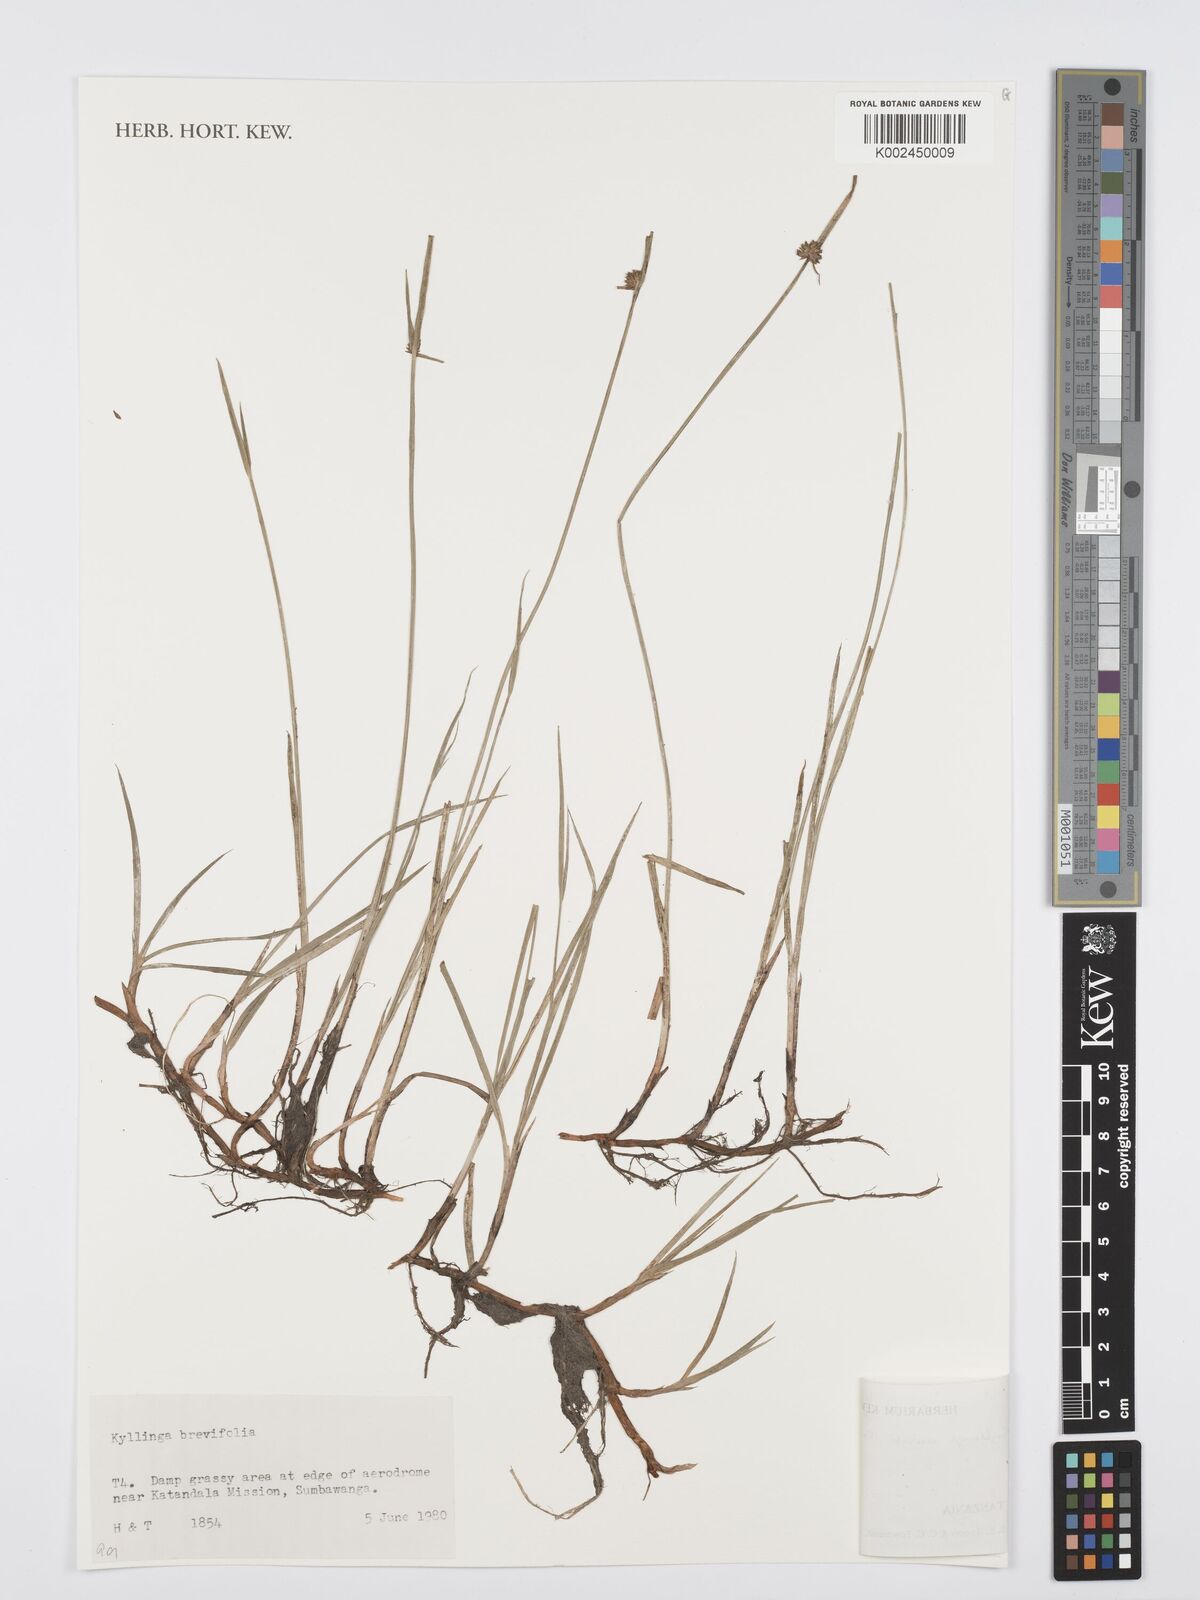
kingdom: Plantae
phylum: Tracheophyta
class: Liliopsida
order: Poales
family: Cyperaceae
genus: Cyperus
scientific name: Cyperus brevifolius
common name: Globe kyllinga
